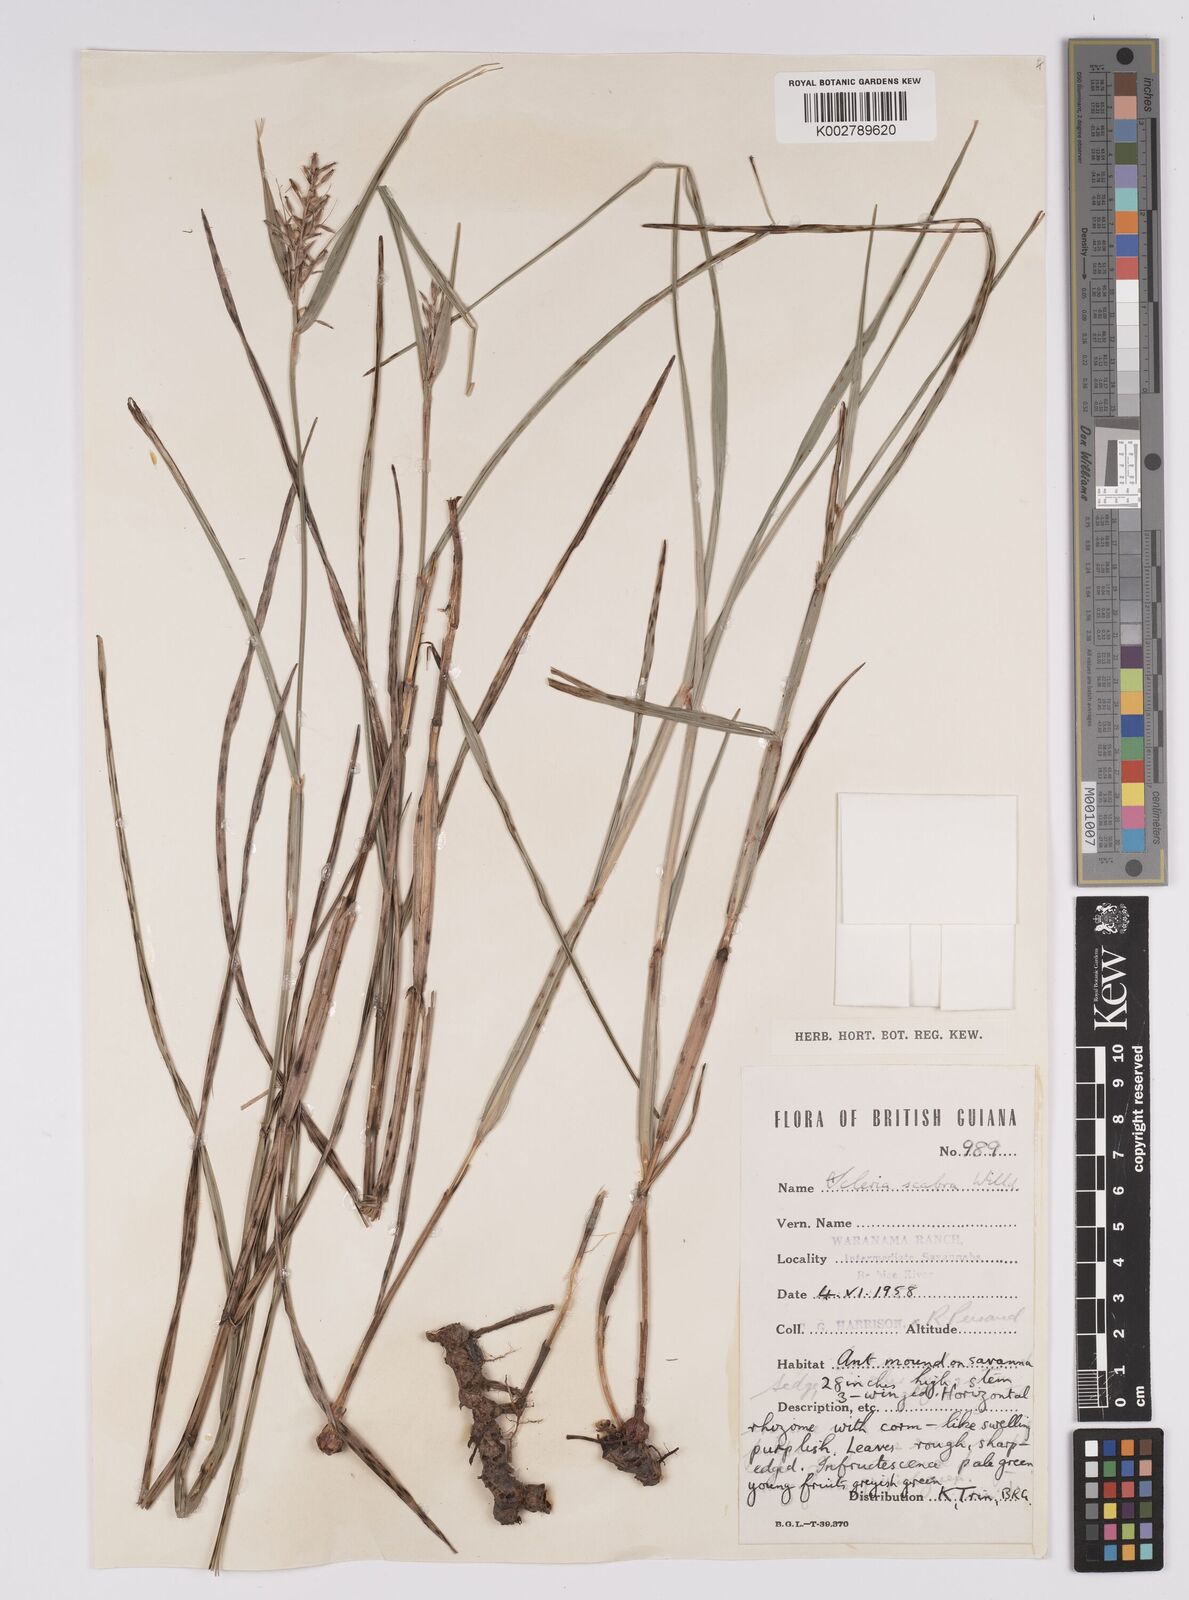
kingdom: Plantae
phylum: Tracheophyta
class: Liliopsida
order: Poales
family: Cyperaceae
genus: Scleria
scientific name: Scleria scabra
